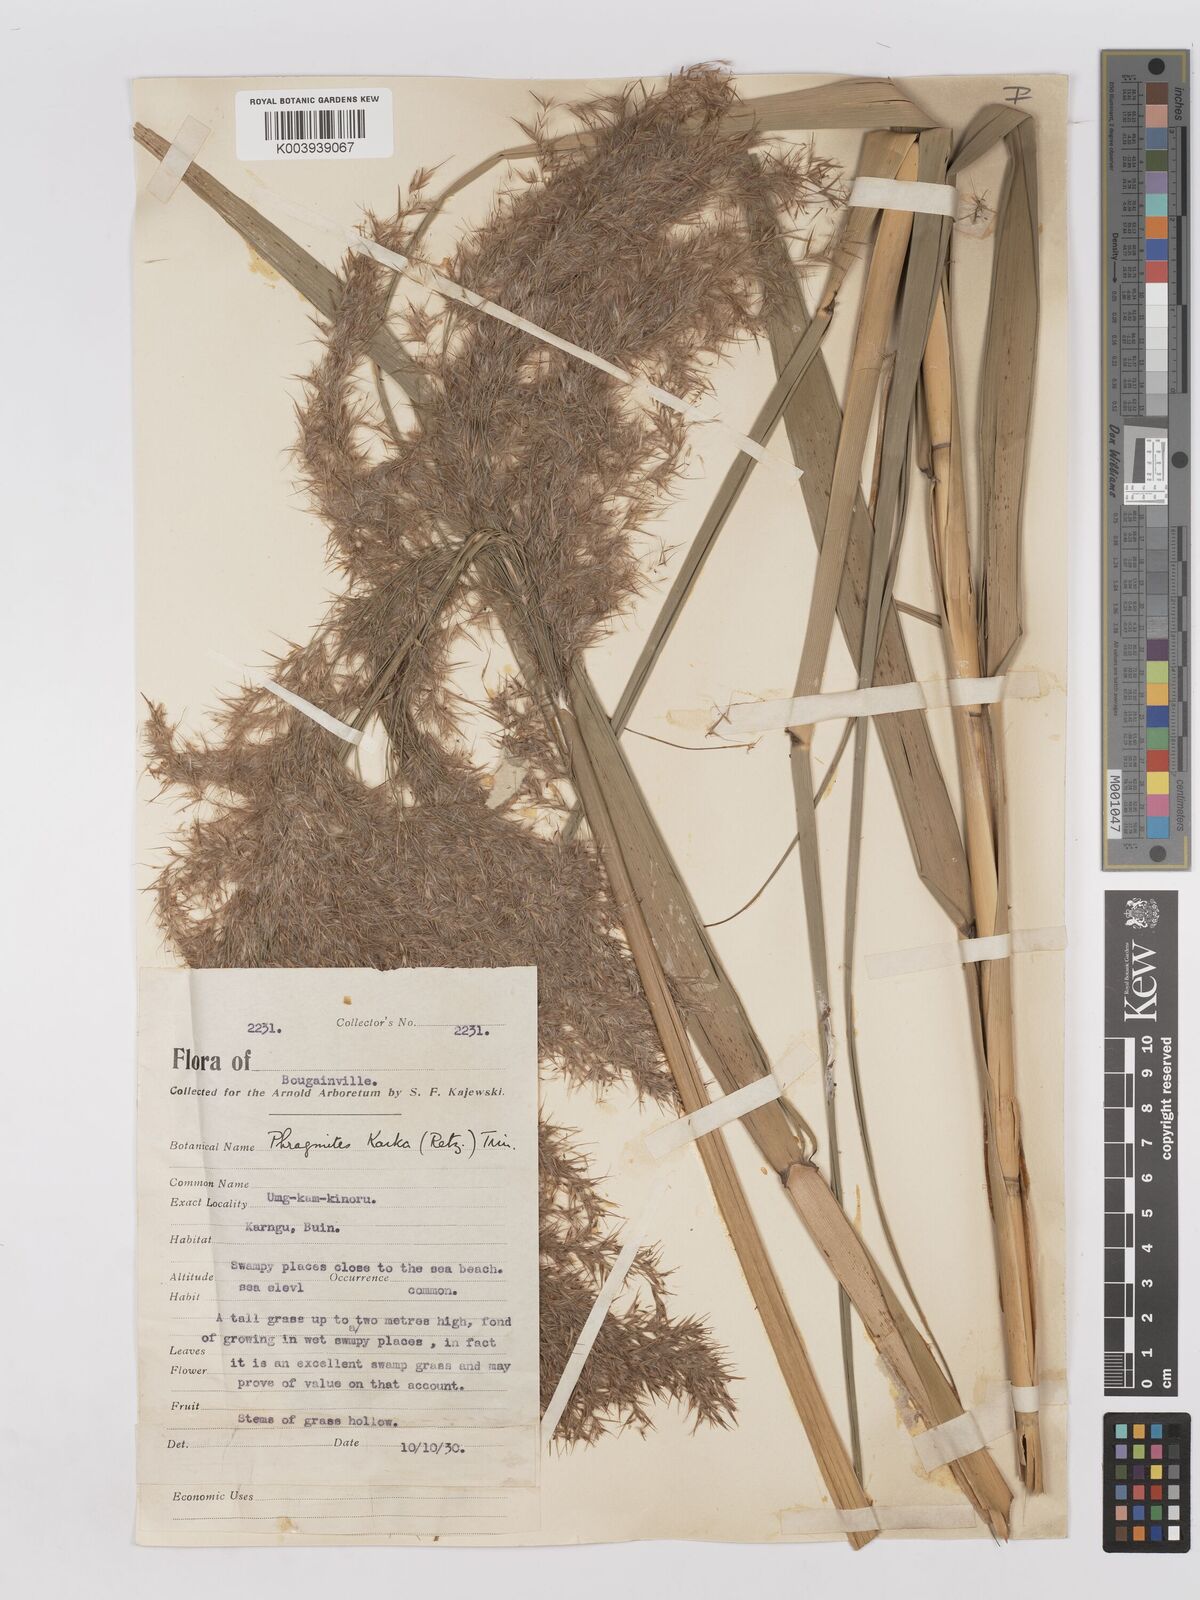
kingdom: Plantae
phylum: Tracheophyta
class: Liliopsida
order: Poales
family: Poaceae
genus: Phragmites
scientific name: Phragmites karka
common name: Tropical reed
